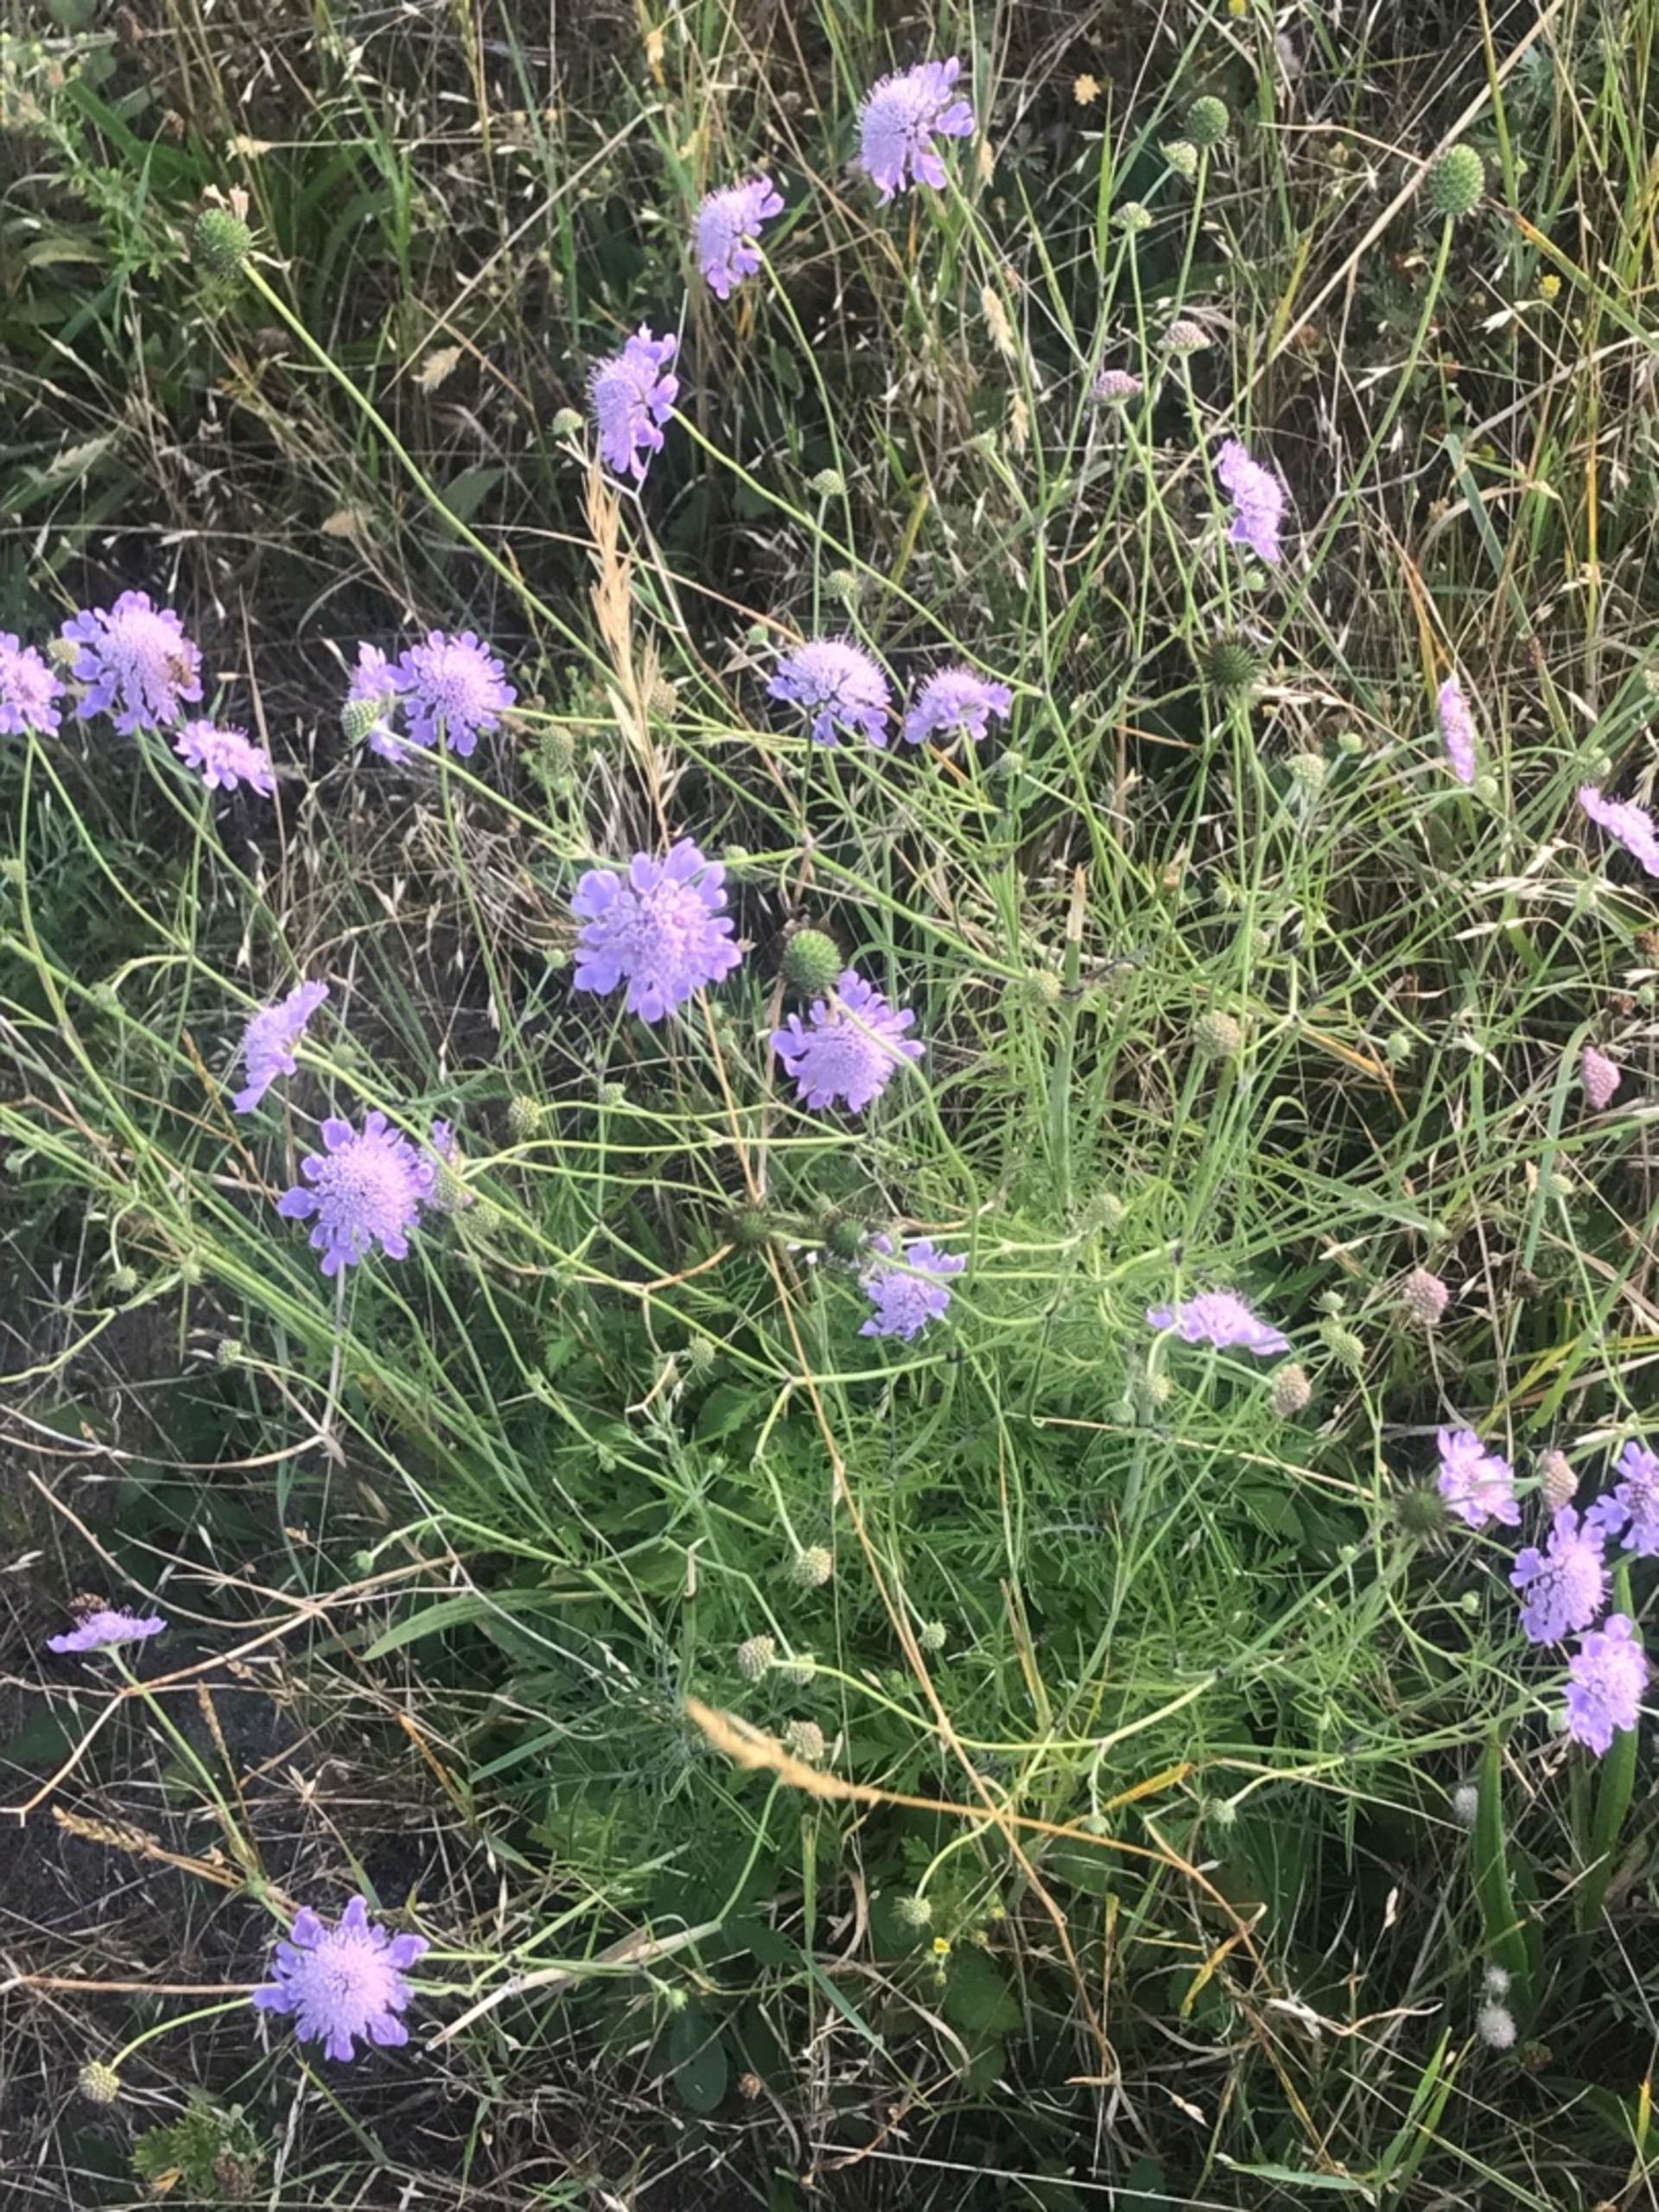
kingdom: Plantae
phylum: Tracheophyta
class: Magnoliopsida
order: Dipsacales
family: Caprifoliaceae
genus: Scabiosa
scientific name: Scabiosa columbaria
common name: Due-skabiose
